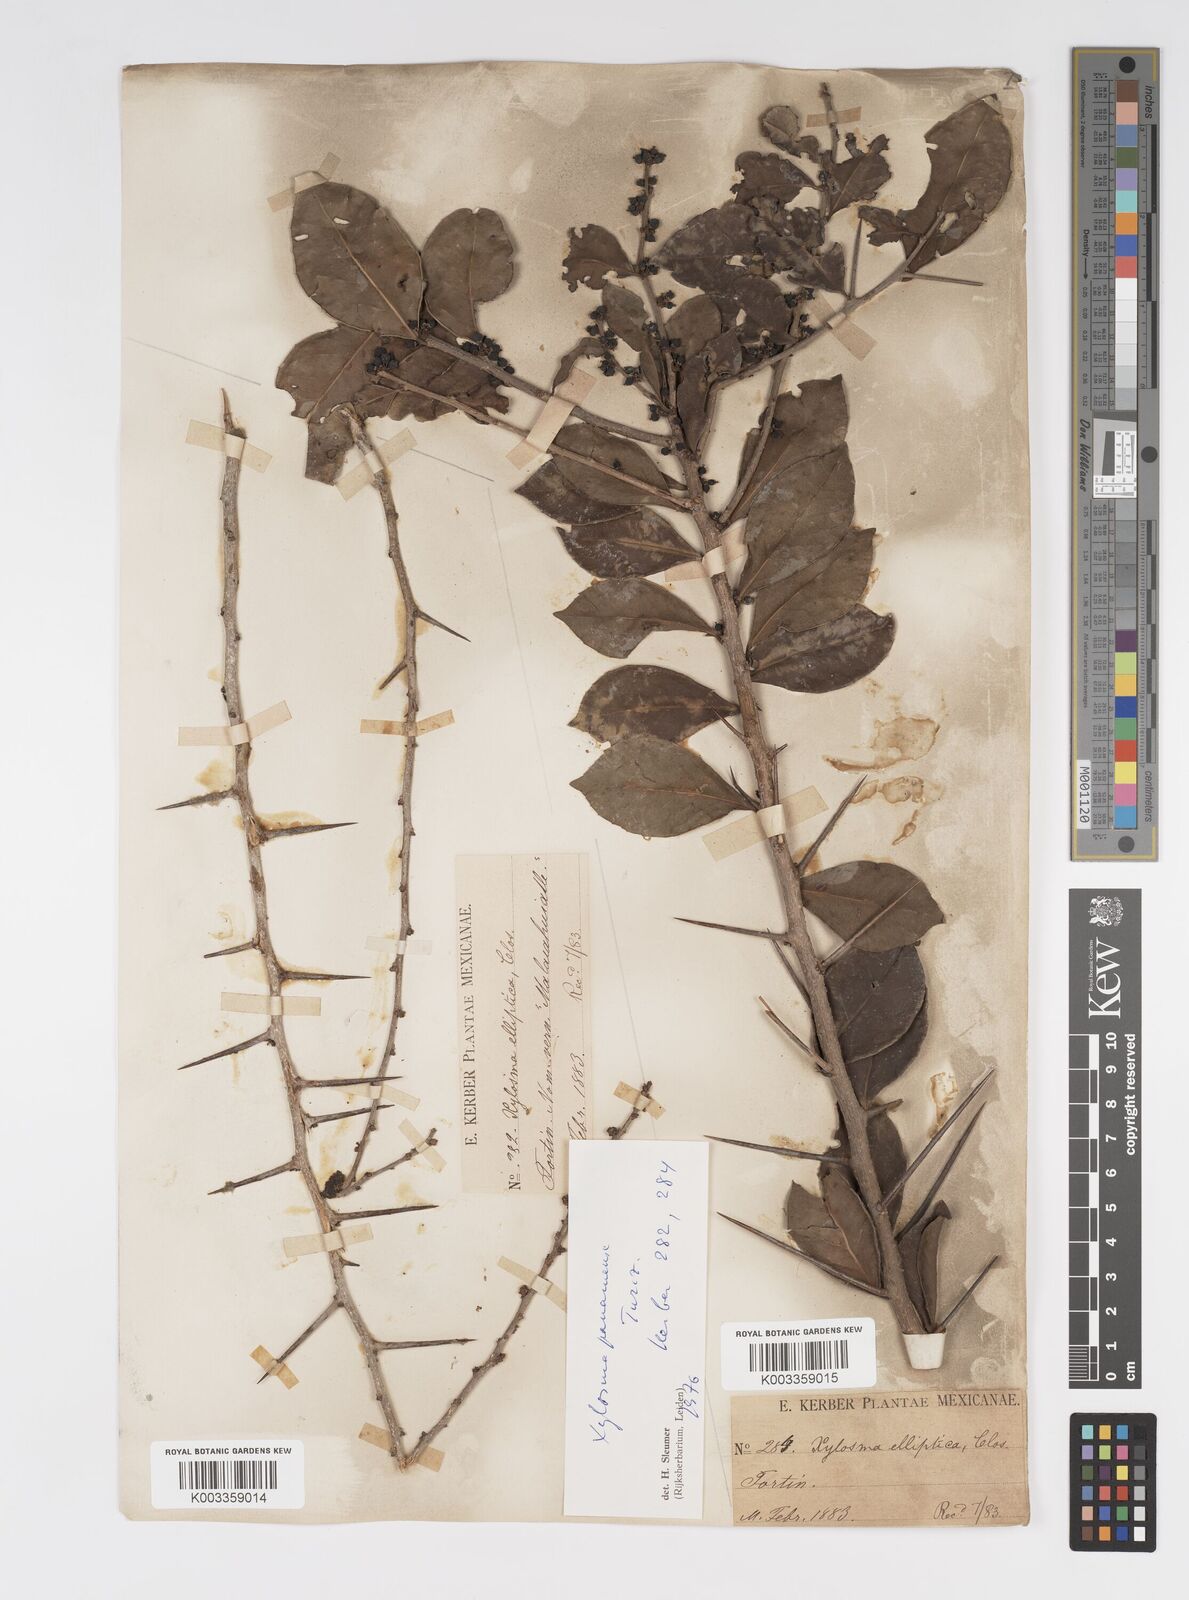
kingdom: Plantae
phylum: Tracheophyta
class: Magnoliopsida
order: Malpighiales
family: Salicaceae
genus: Xylosma
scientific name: Xylosma panamensis
